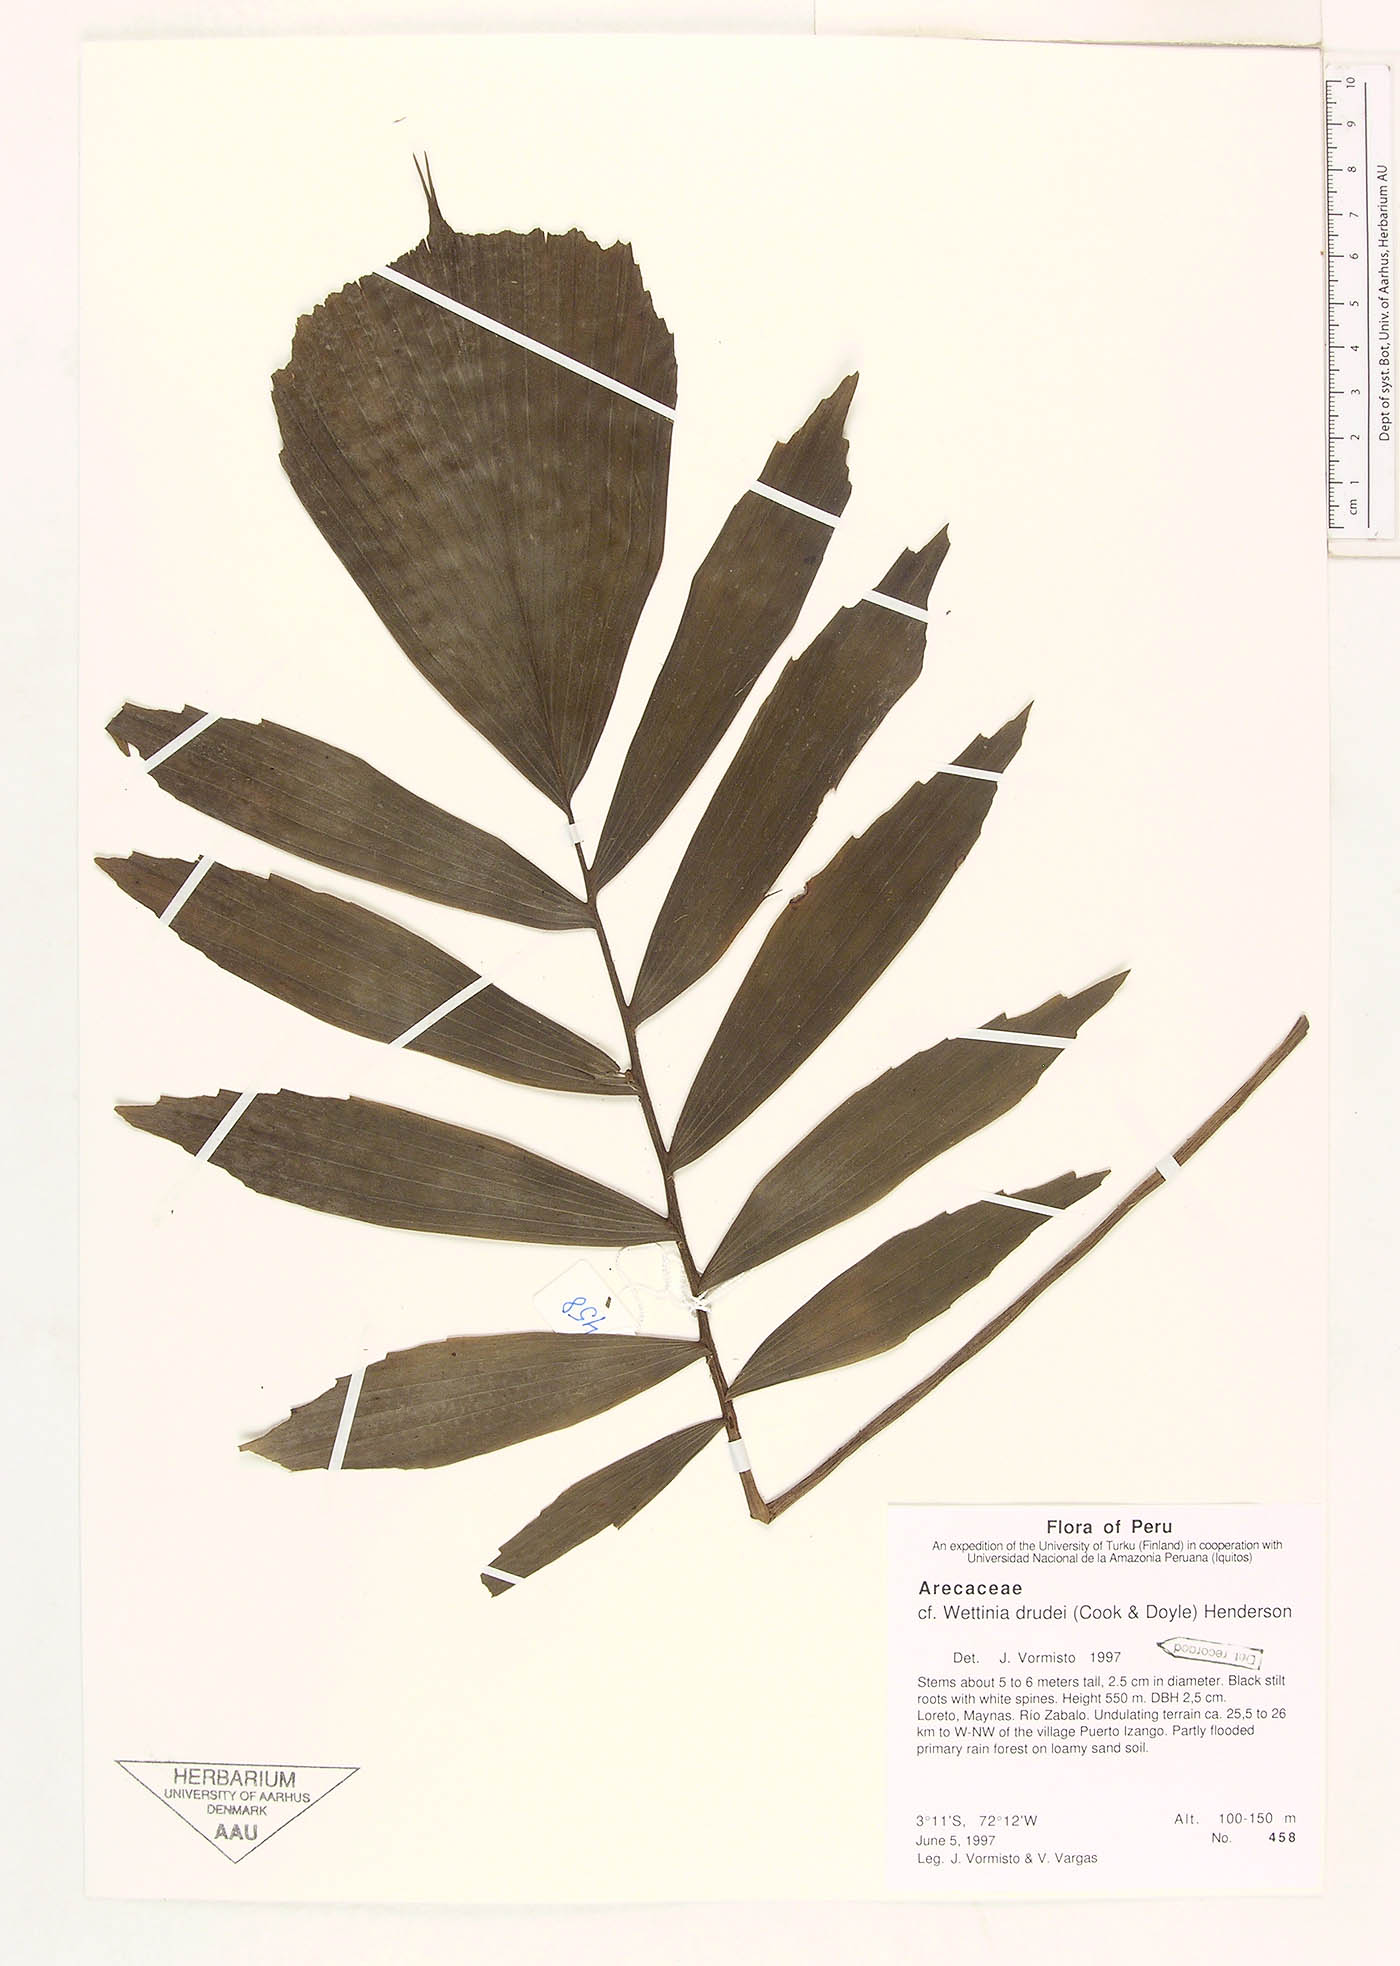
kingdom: Plantae
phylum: Tracheophyta
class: Liliopsida
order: Arecales
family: Arecaceae
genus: Wettinia
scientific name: Wettinia drudei
